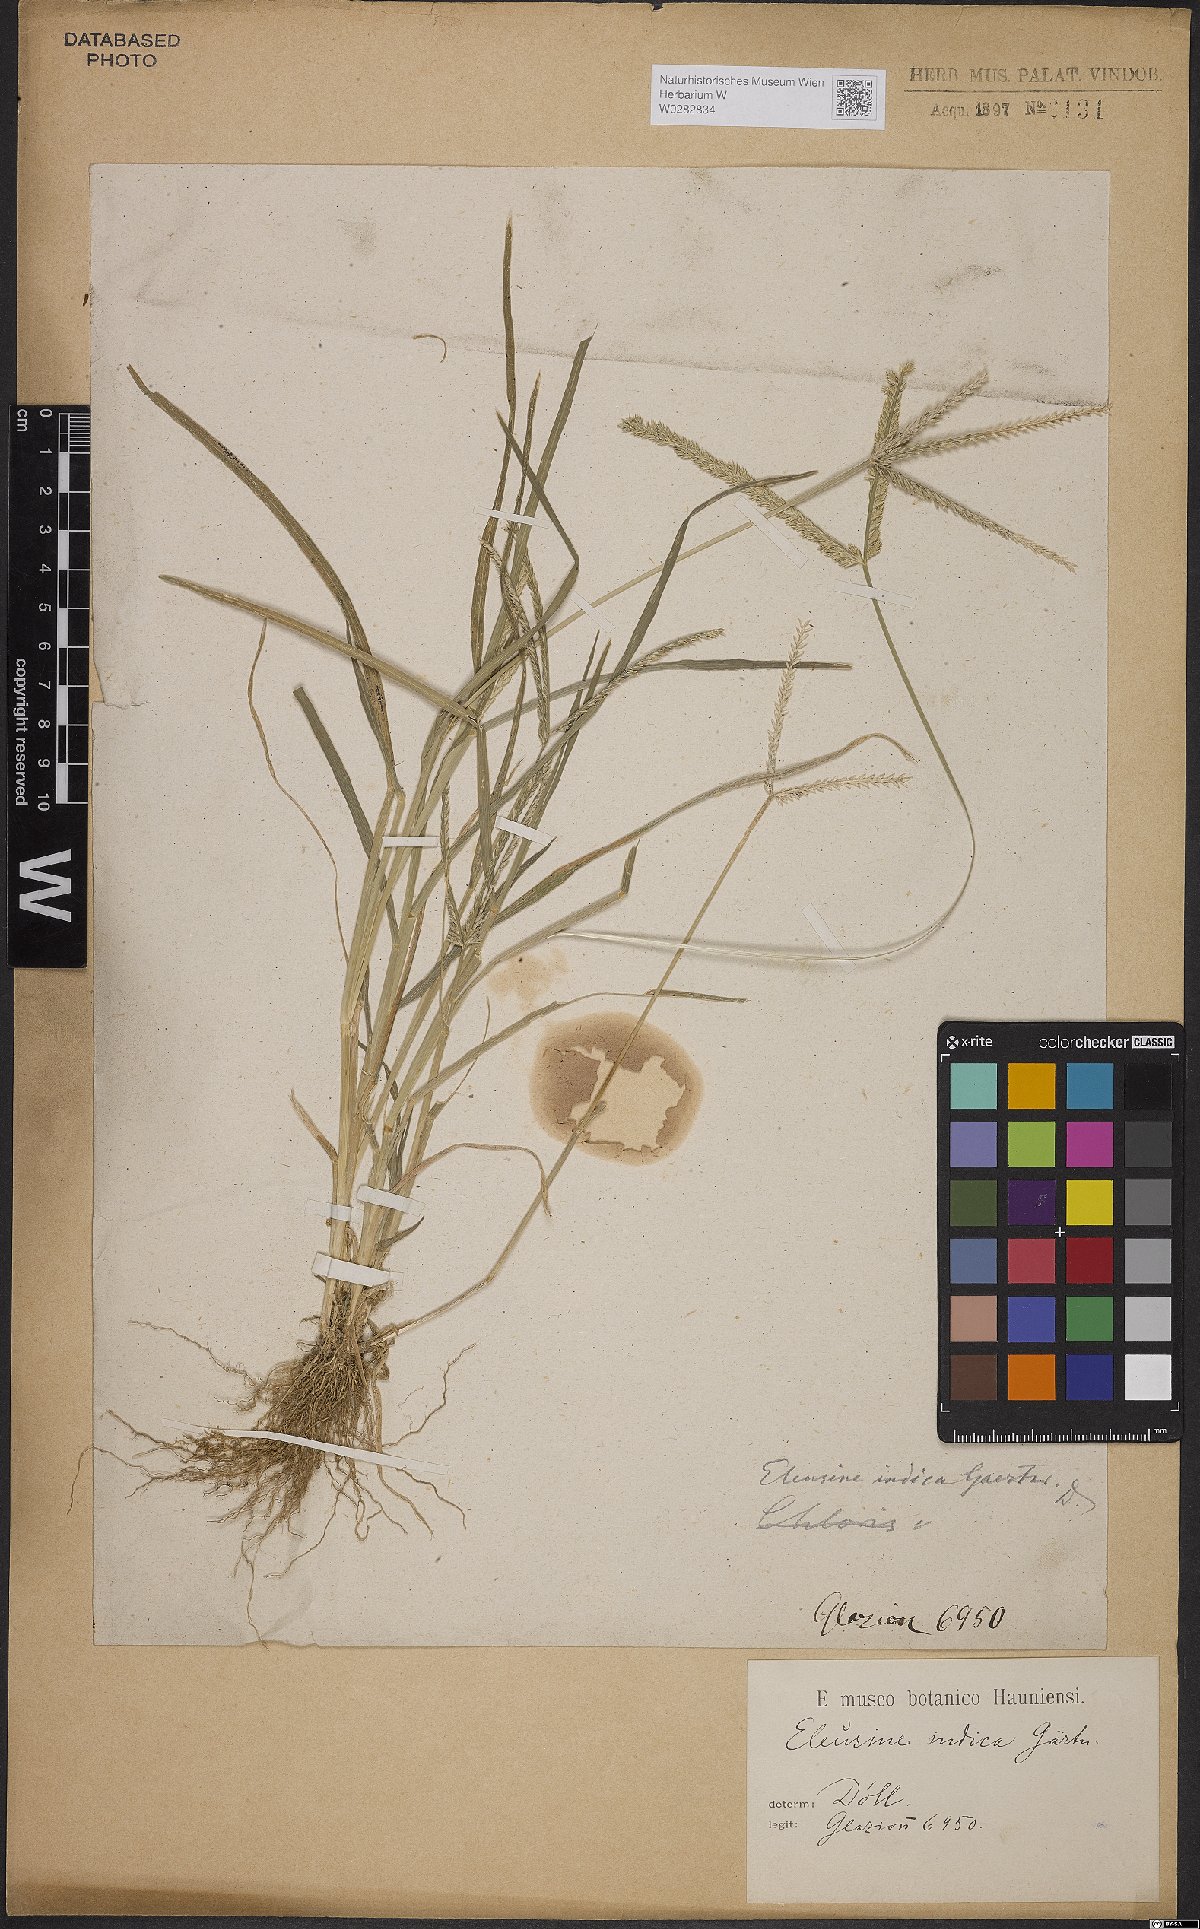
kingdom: Plantae
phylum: Tracheophyta
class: Liliopsida
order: Poales
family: Poaceae
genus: Eleusine
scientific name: Eleusine indica
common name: Yard-grass
